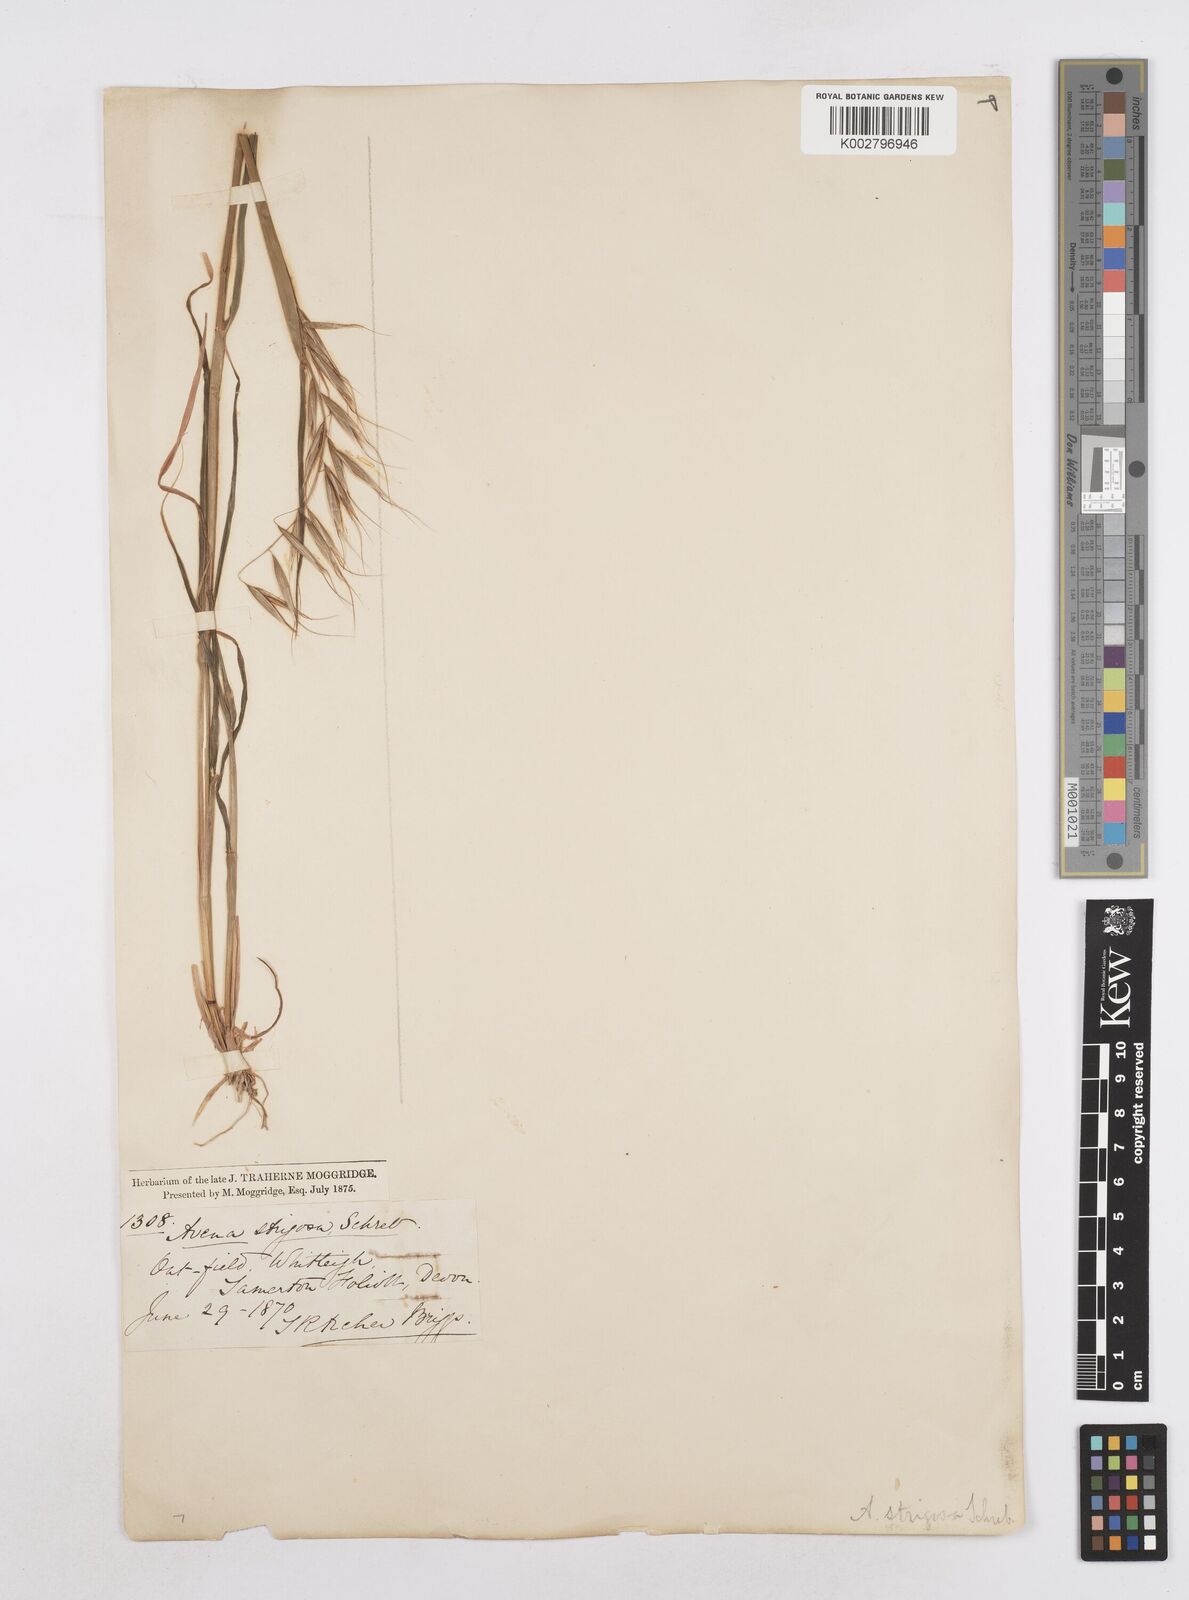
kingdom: Plantae
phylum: Tracheophyta
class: Liliopsida
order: Poales
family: Poaceae
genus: Avena
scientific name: Avena strigosa
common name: Bristle oat
